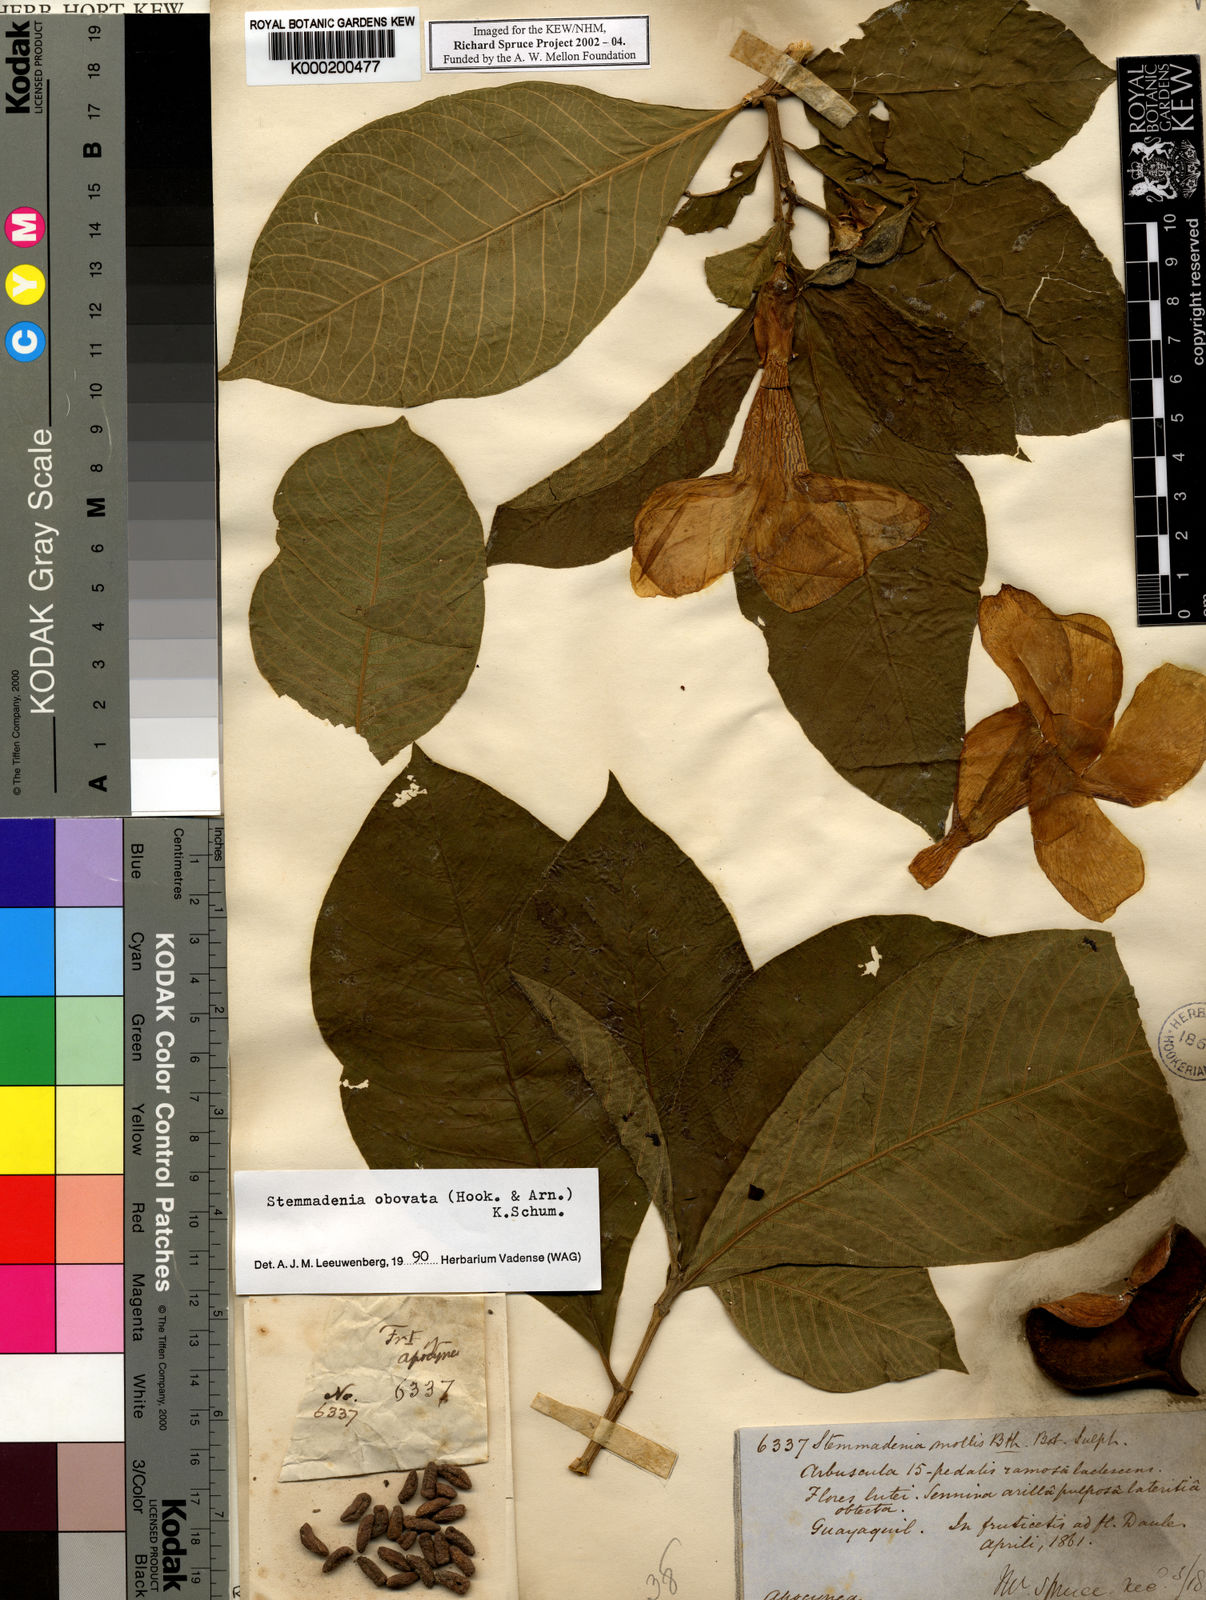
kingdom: Plantae
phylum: Tracheophyta
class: Magnoliopsida
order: Gentianales
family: Apocynaceae
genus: Tabernaemontana
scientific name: Tabernaemontana glabra
